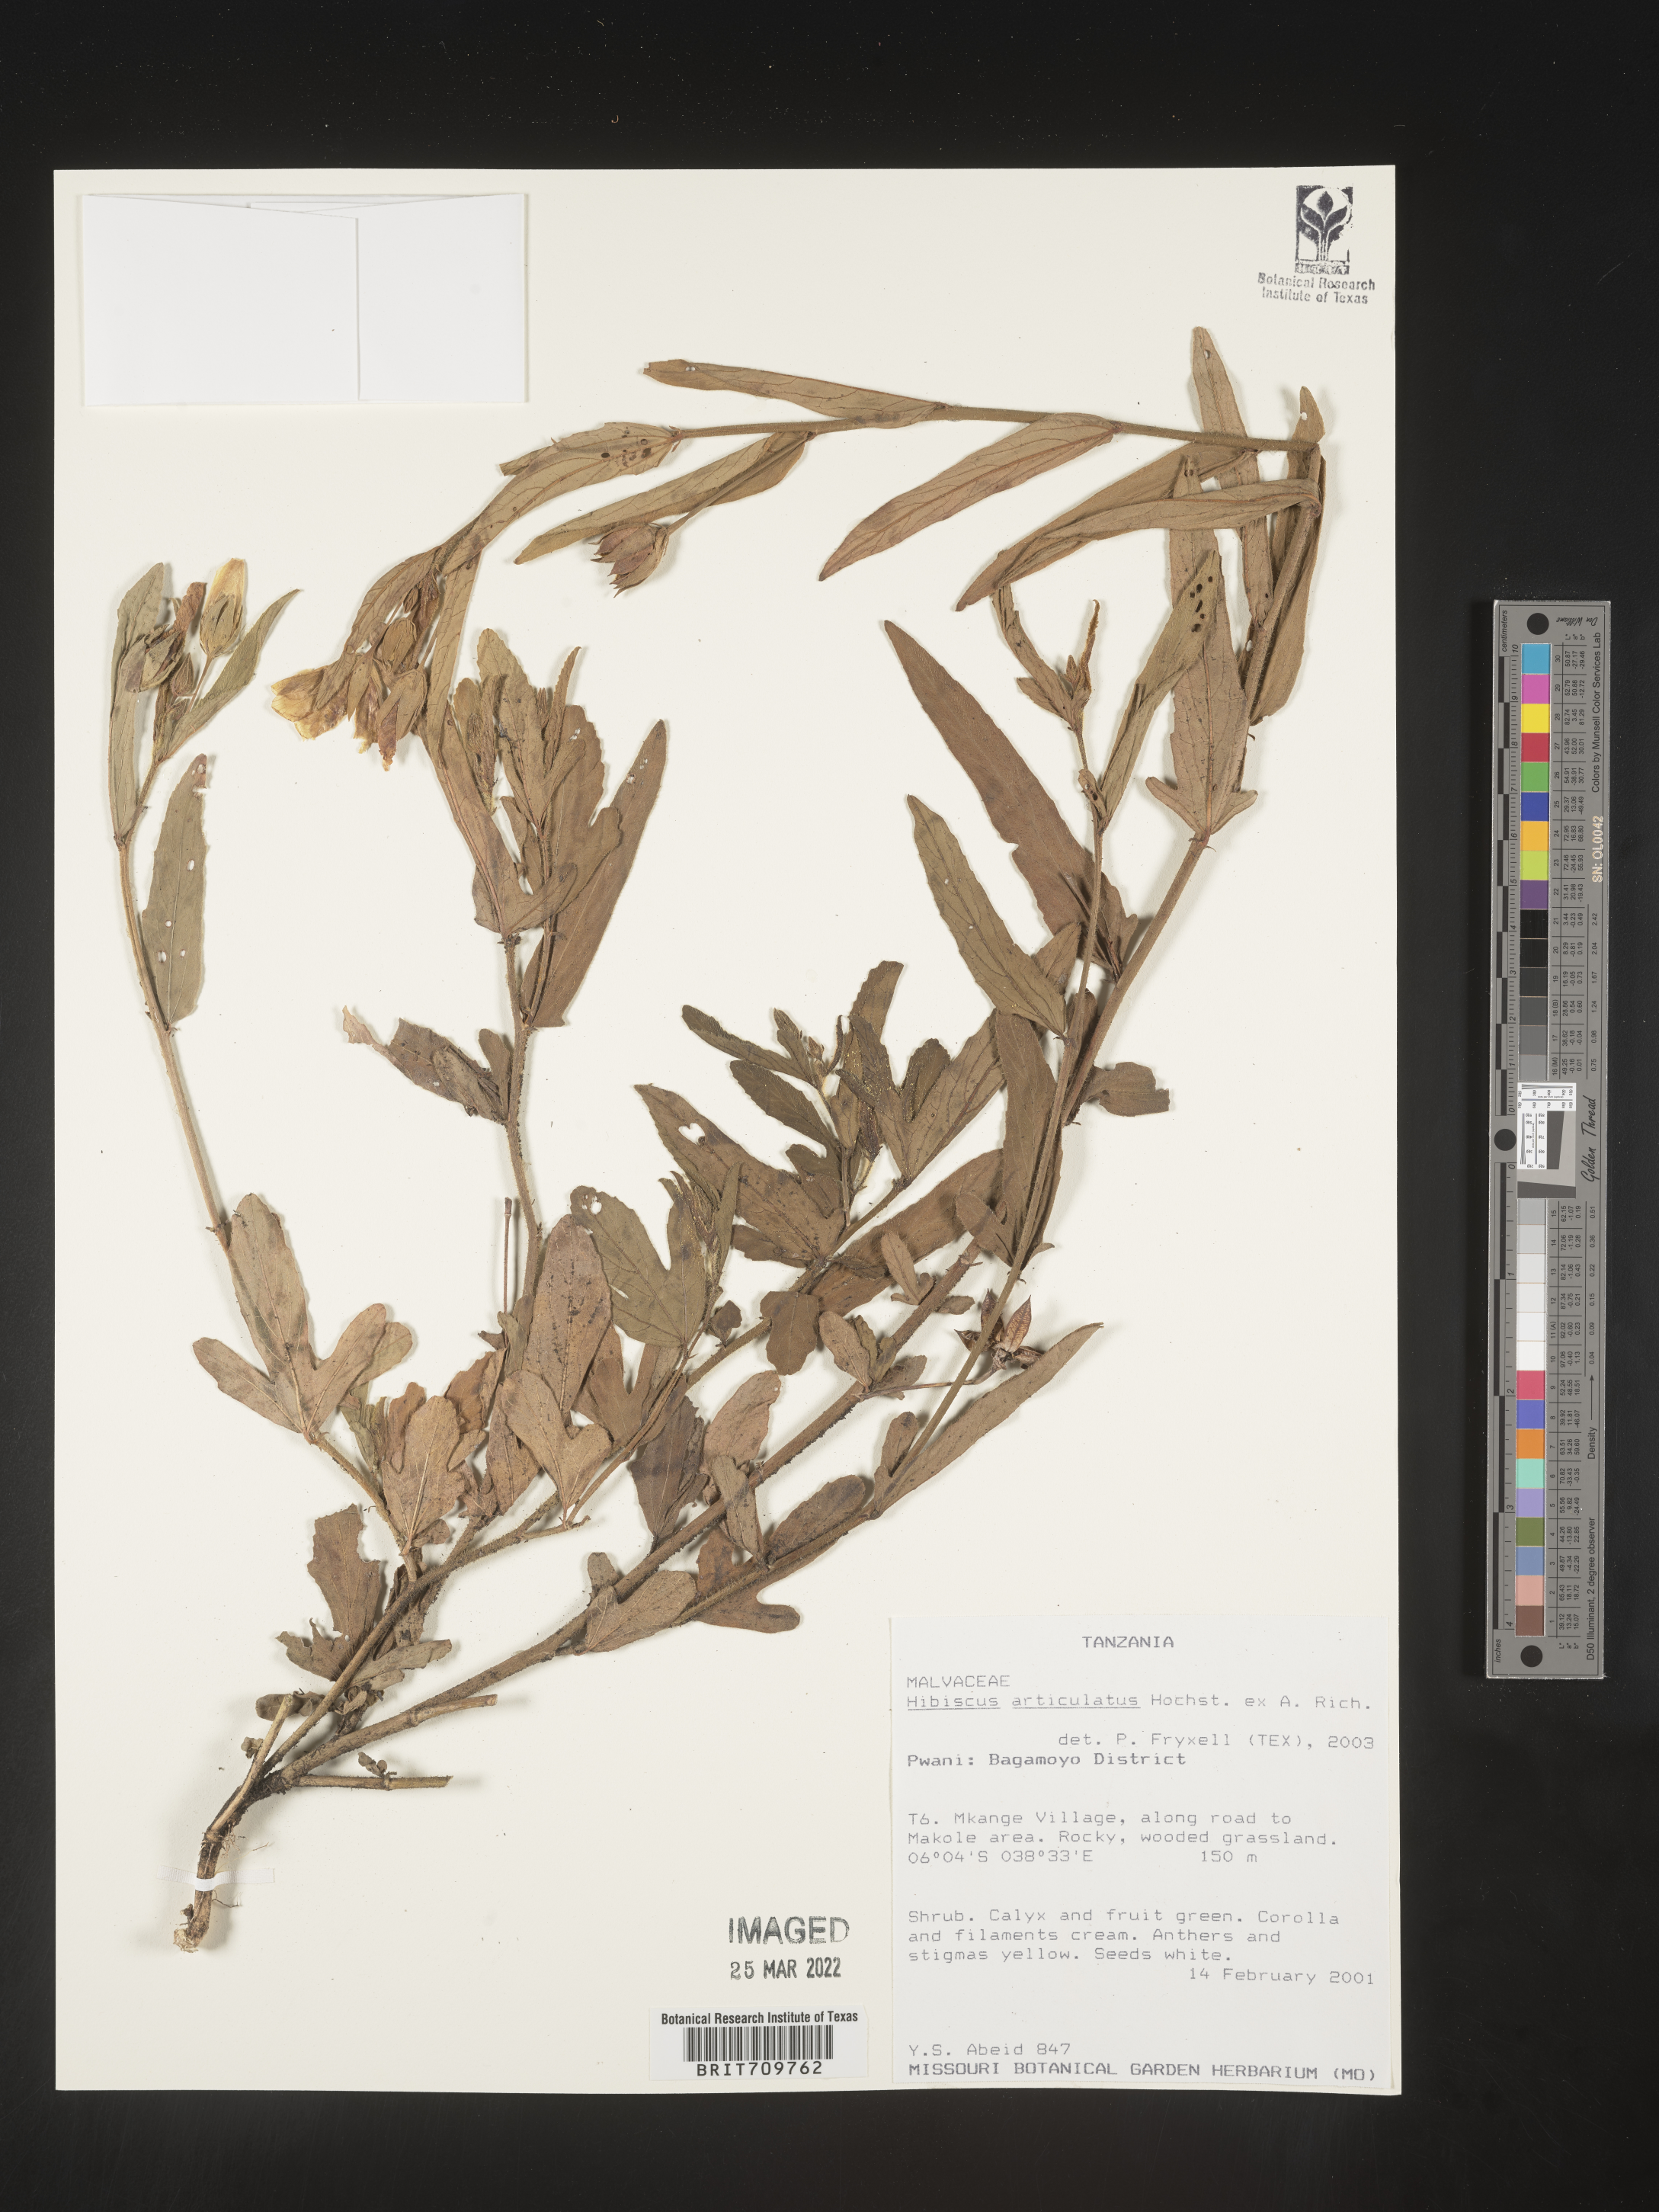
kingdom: Plantae
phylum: Tracheophyta
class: Magnoliopsida
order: Malvales
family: Malvaceae
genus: Hibiscus
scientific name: Hibiscus
